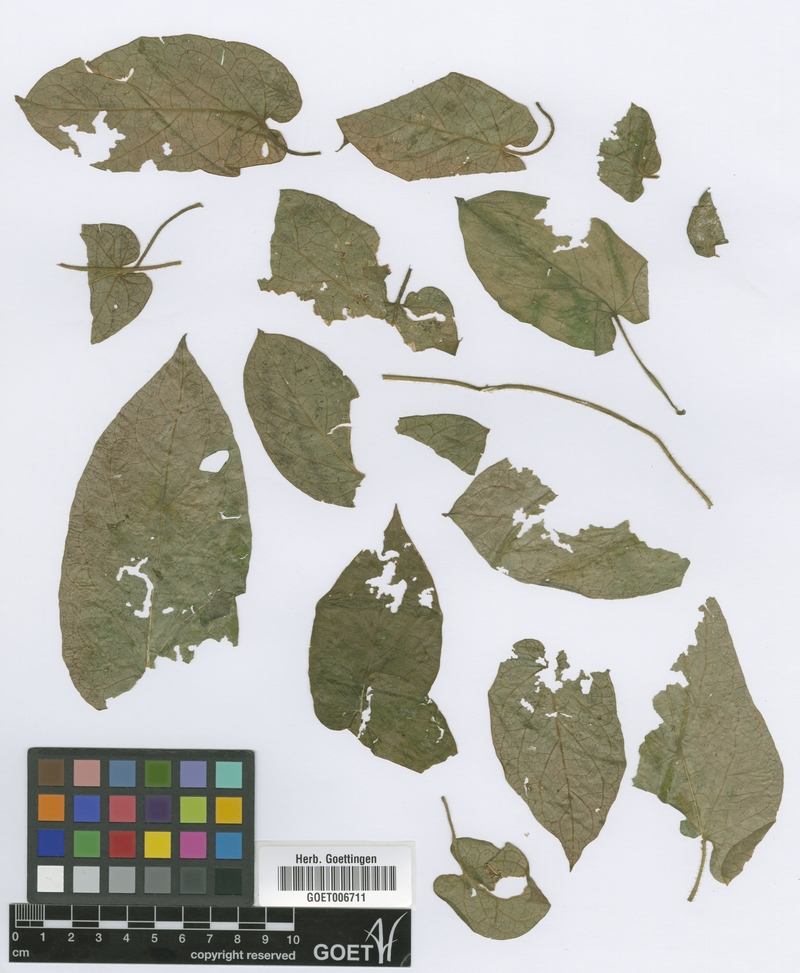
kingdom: Plantae
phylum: Tracheophyta
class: Magnoliopsida
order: Gentianales
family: Apocynaceae
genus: Gonolobus
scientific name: Gonolobus rostratus
